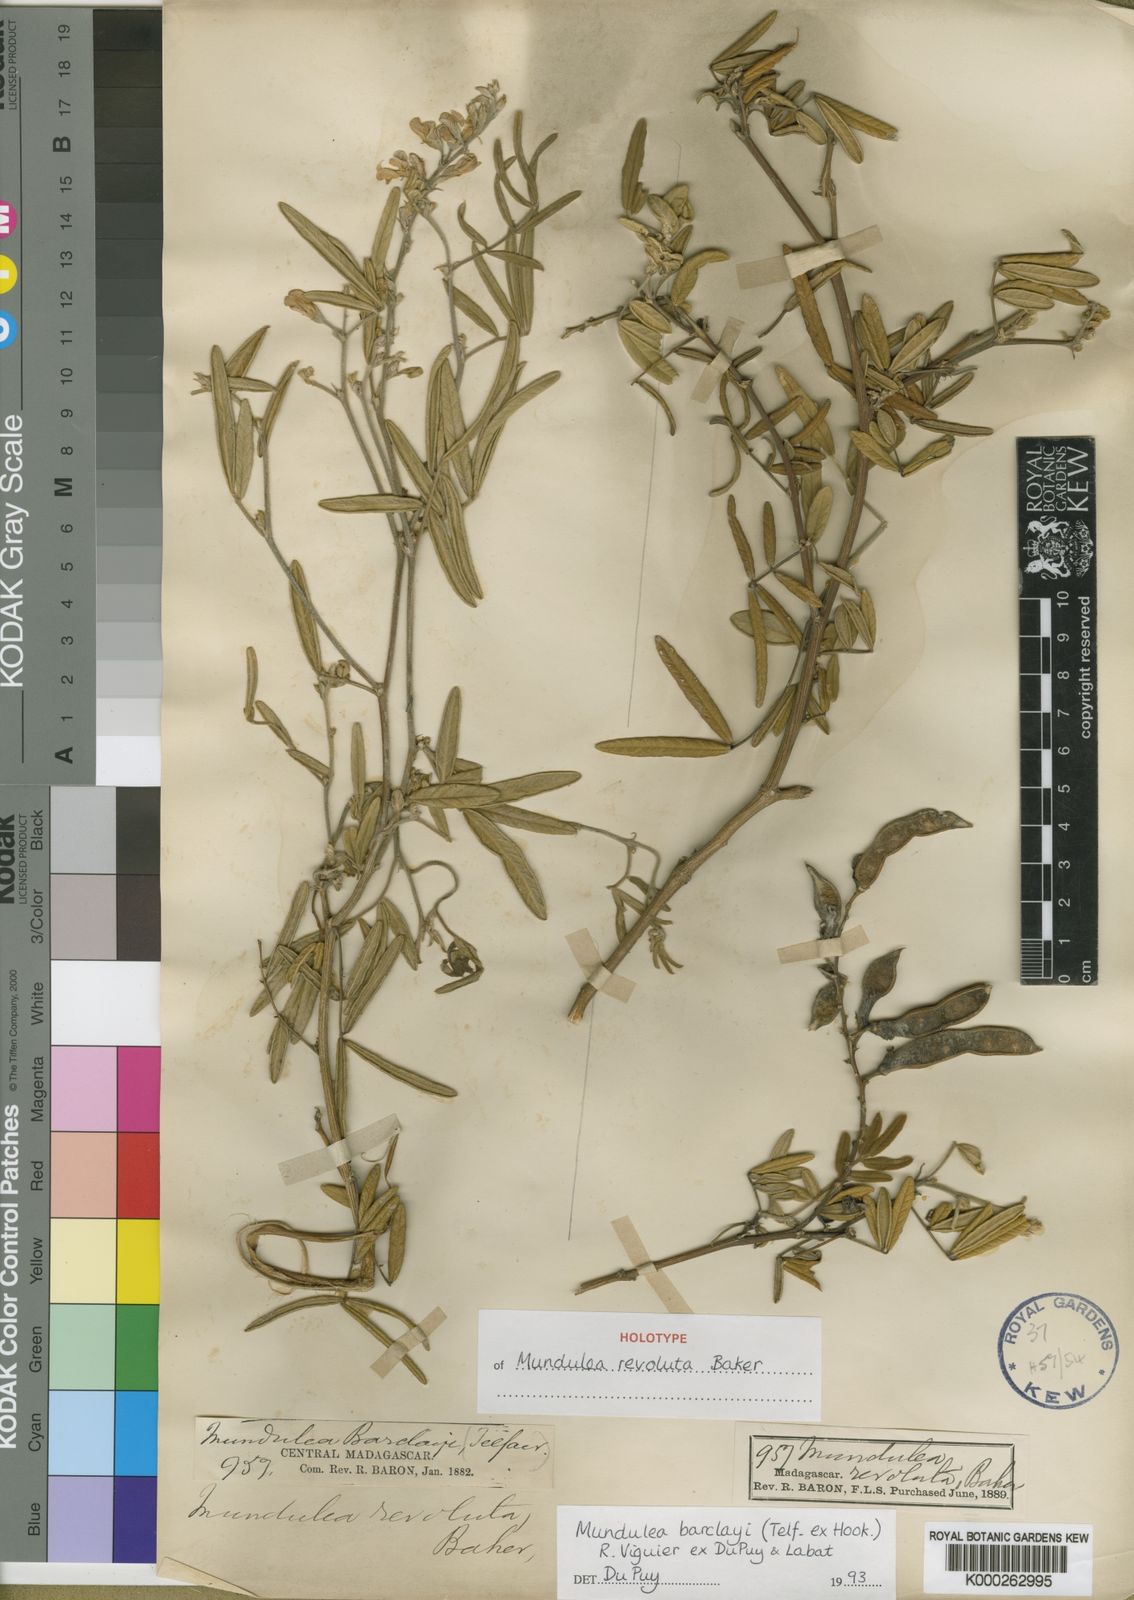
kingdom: Plantae
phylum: Tracheophyta
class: Magnoliopsida
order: Fabales
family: Fabaceae
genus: Mundulea
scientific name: Mundulea barclayi
